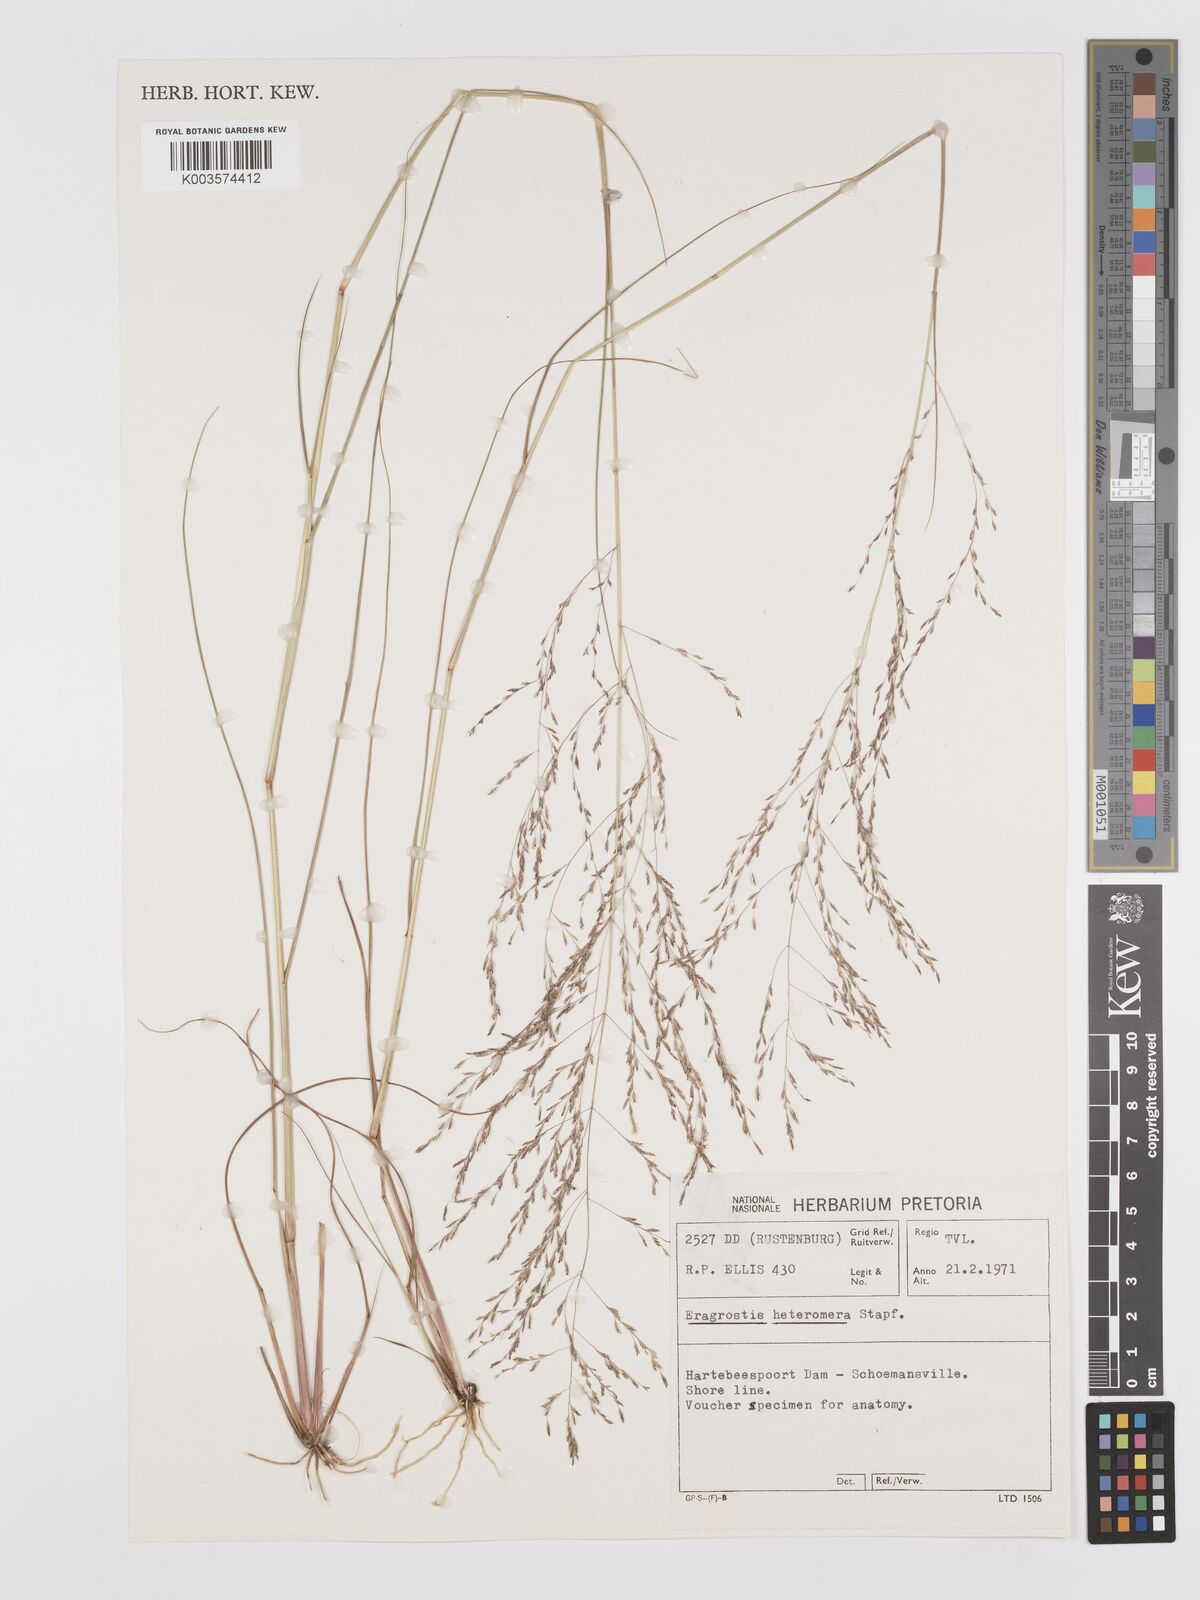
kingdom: Plantae
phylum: Tracheophyta
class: Liliopsida
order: Poales
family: Poaceae
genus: Eragrostis
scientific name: Eragrostis heteromera
